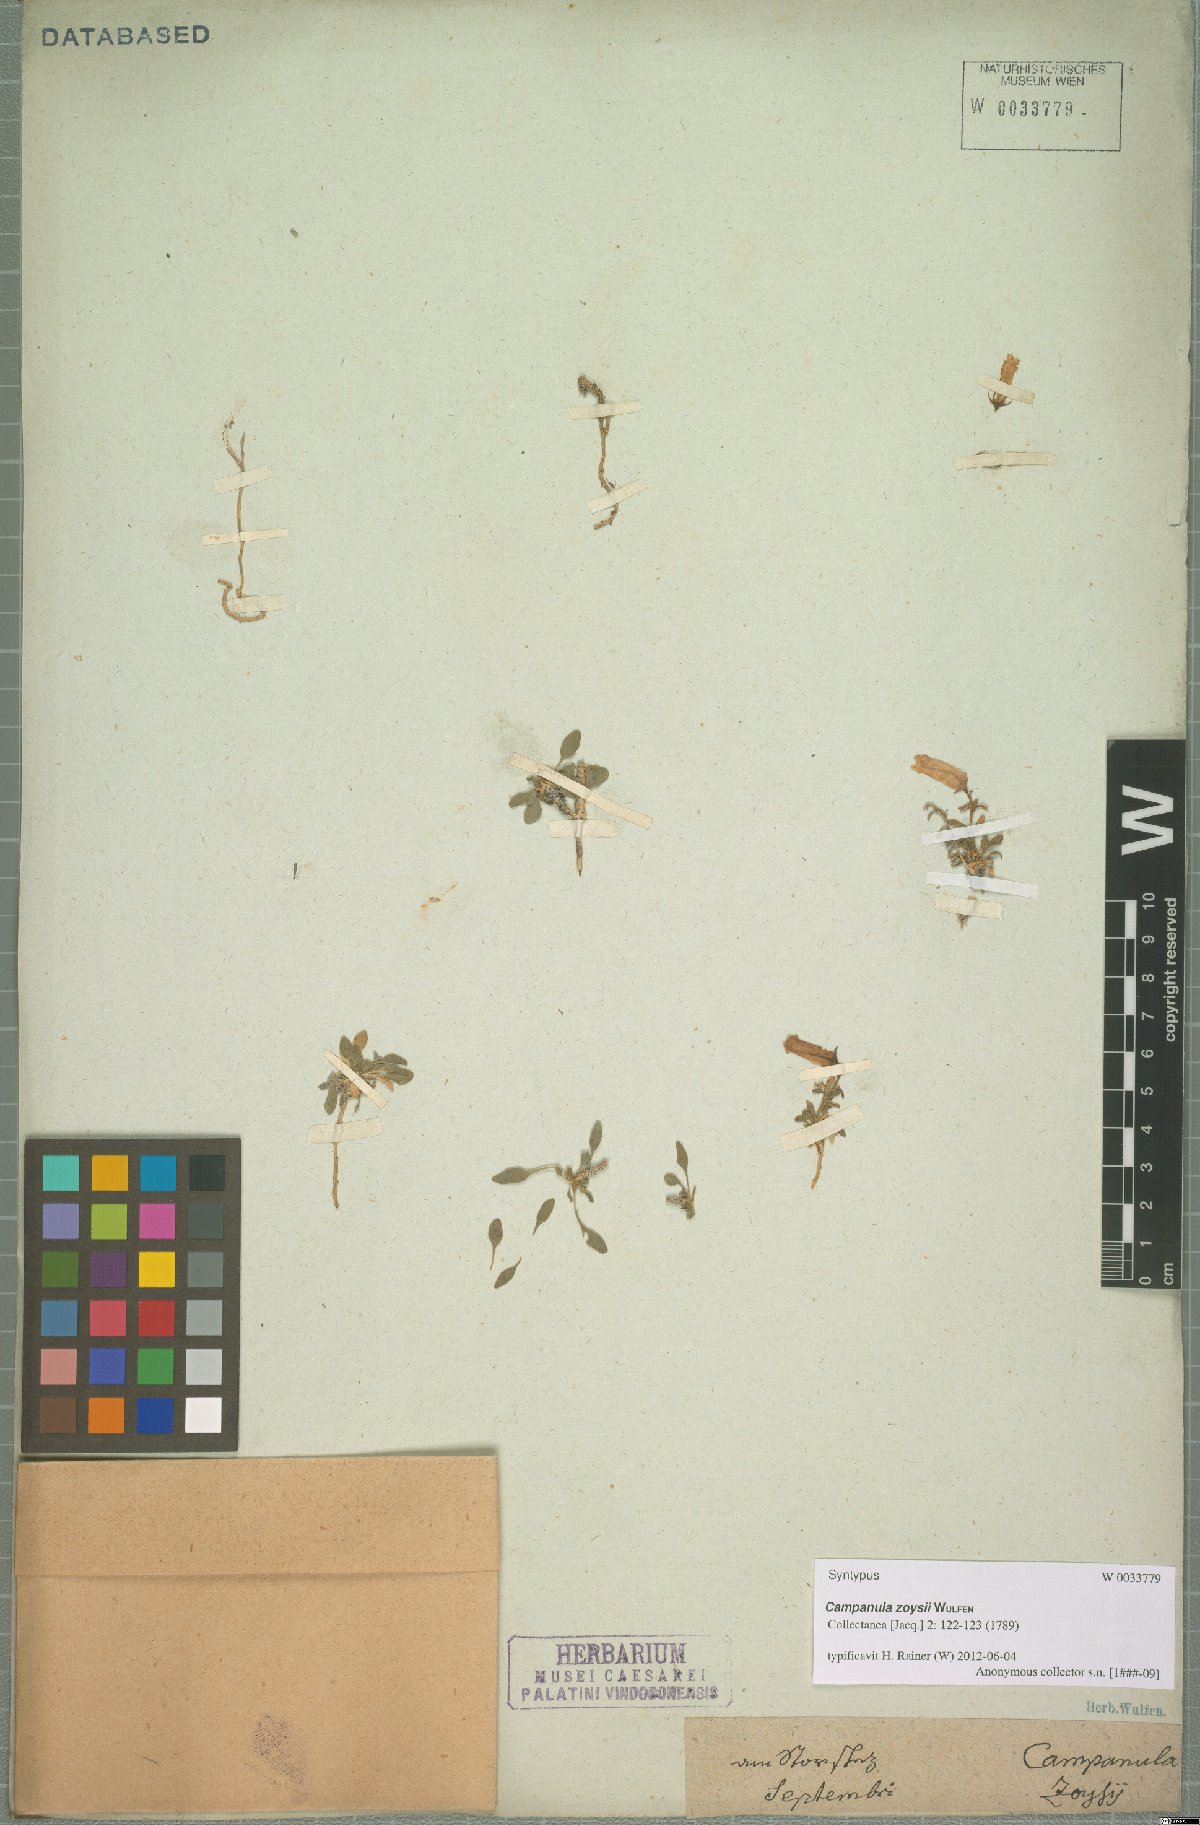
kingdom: Plantae
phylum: Tracheophyta
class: Magnoliopsida
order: Asterales
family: Campanulaceae
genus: Favratia
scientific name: Favratia zoysii
